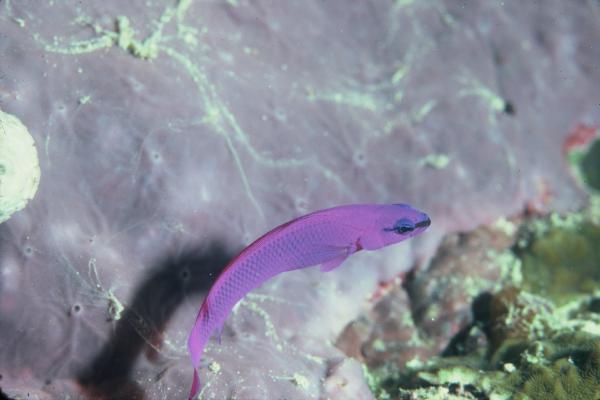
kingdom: Animalia
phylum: Chordata
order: Perciformes
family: Pseudochromidae
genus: Pseudochromis
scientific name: Pseudochromis fridmani
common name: Orchid dottyback
